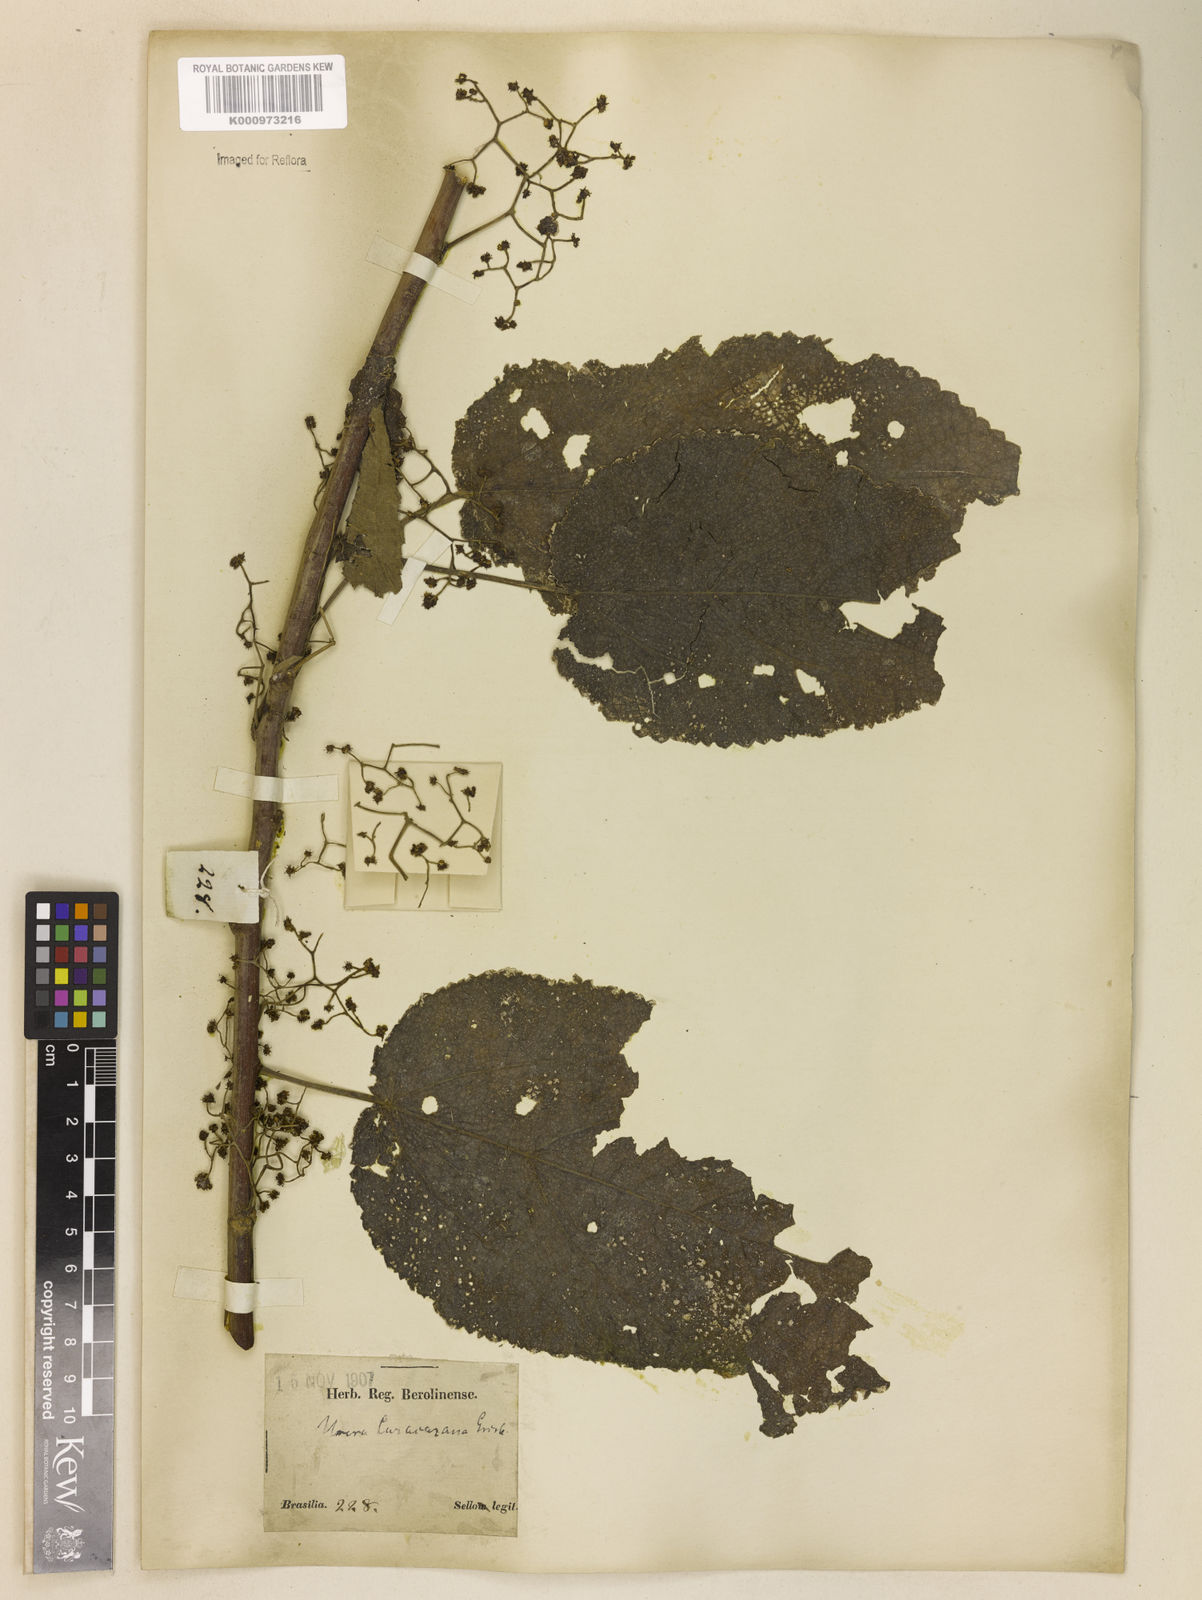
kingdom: Plantae
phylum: Tracheophyta
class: Magnoliopsida
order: Rosales
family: Urticaceae
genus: Urera
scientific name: Urera caracasana
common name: Flameberry
